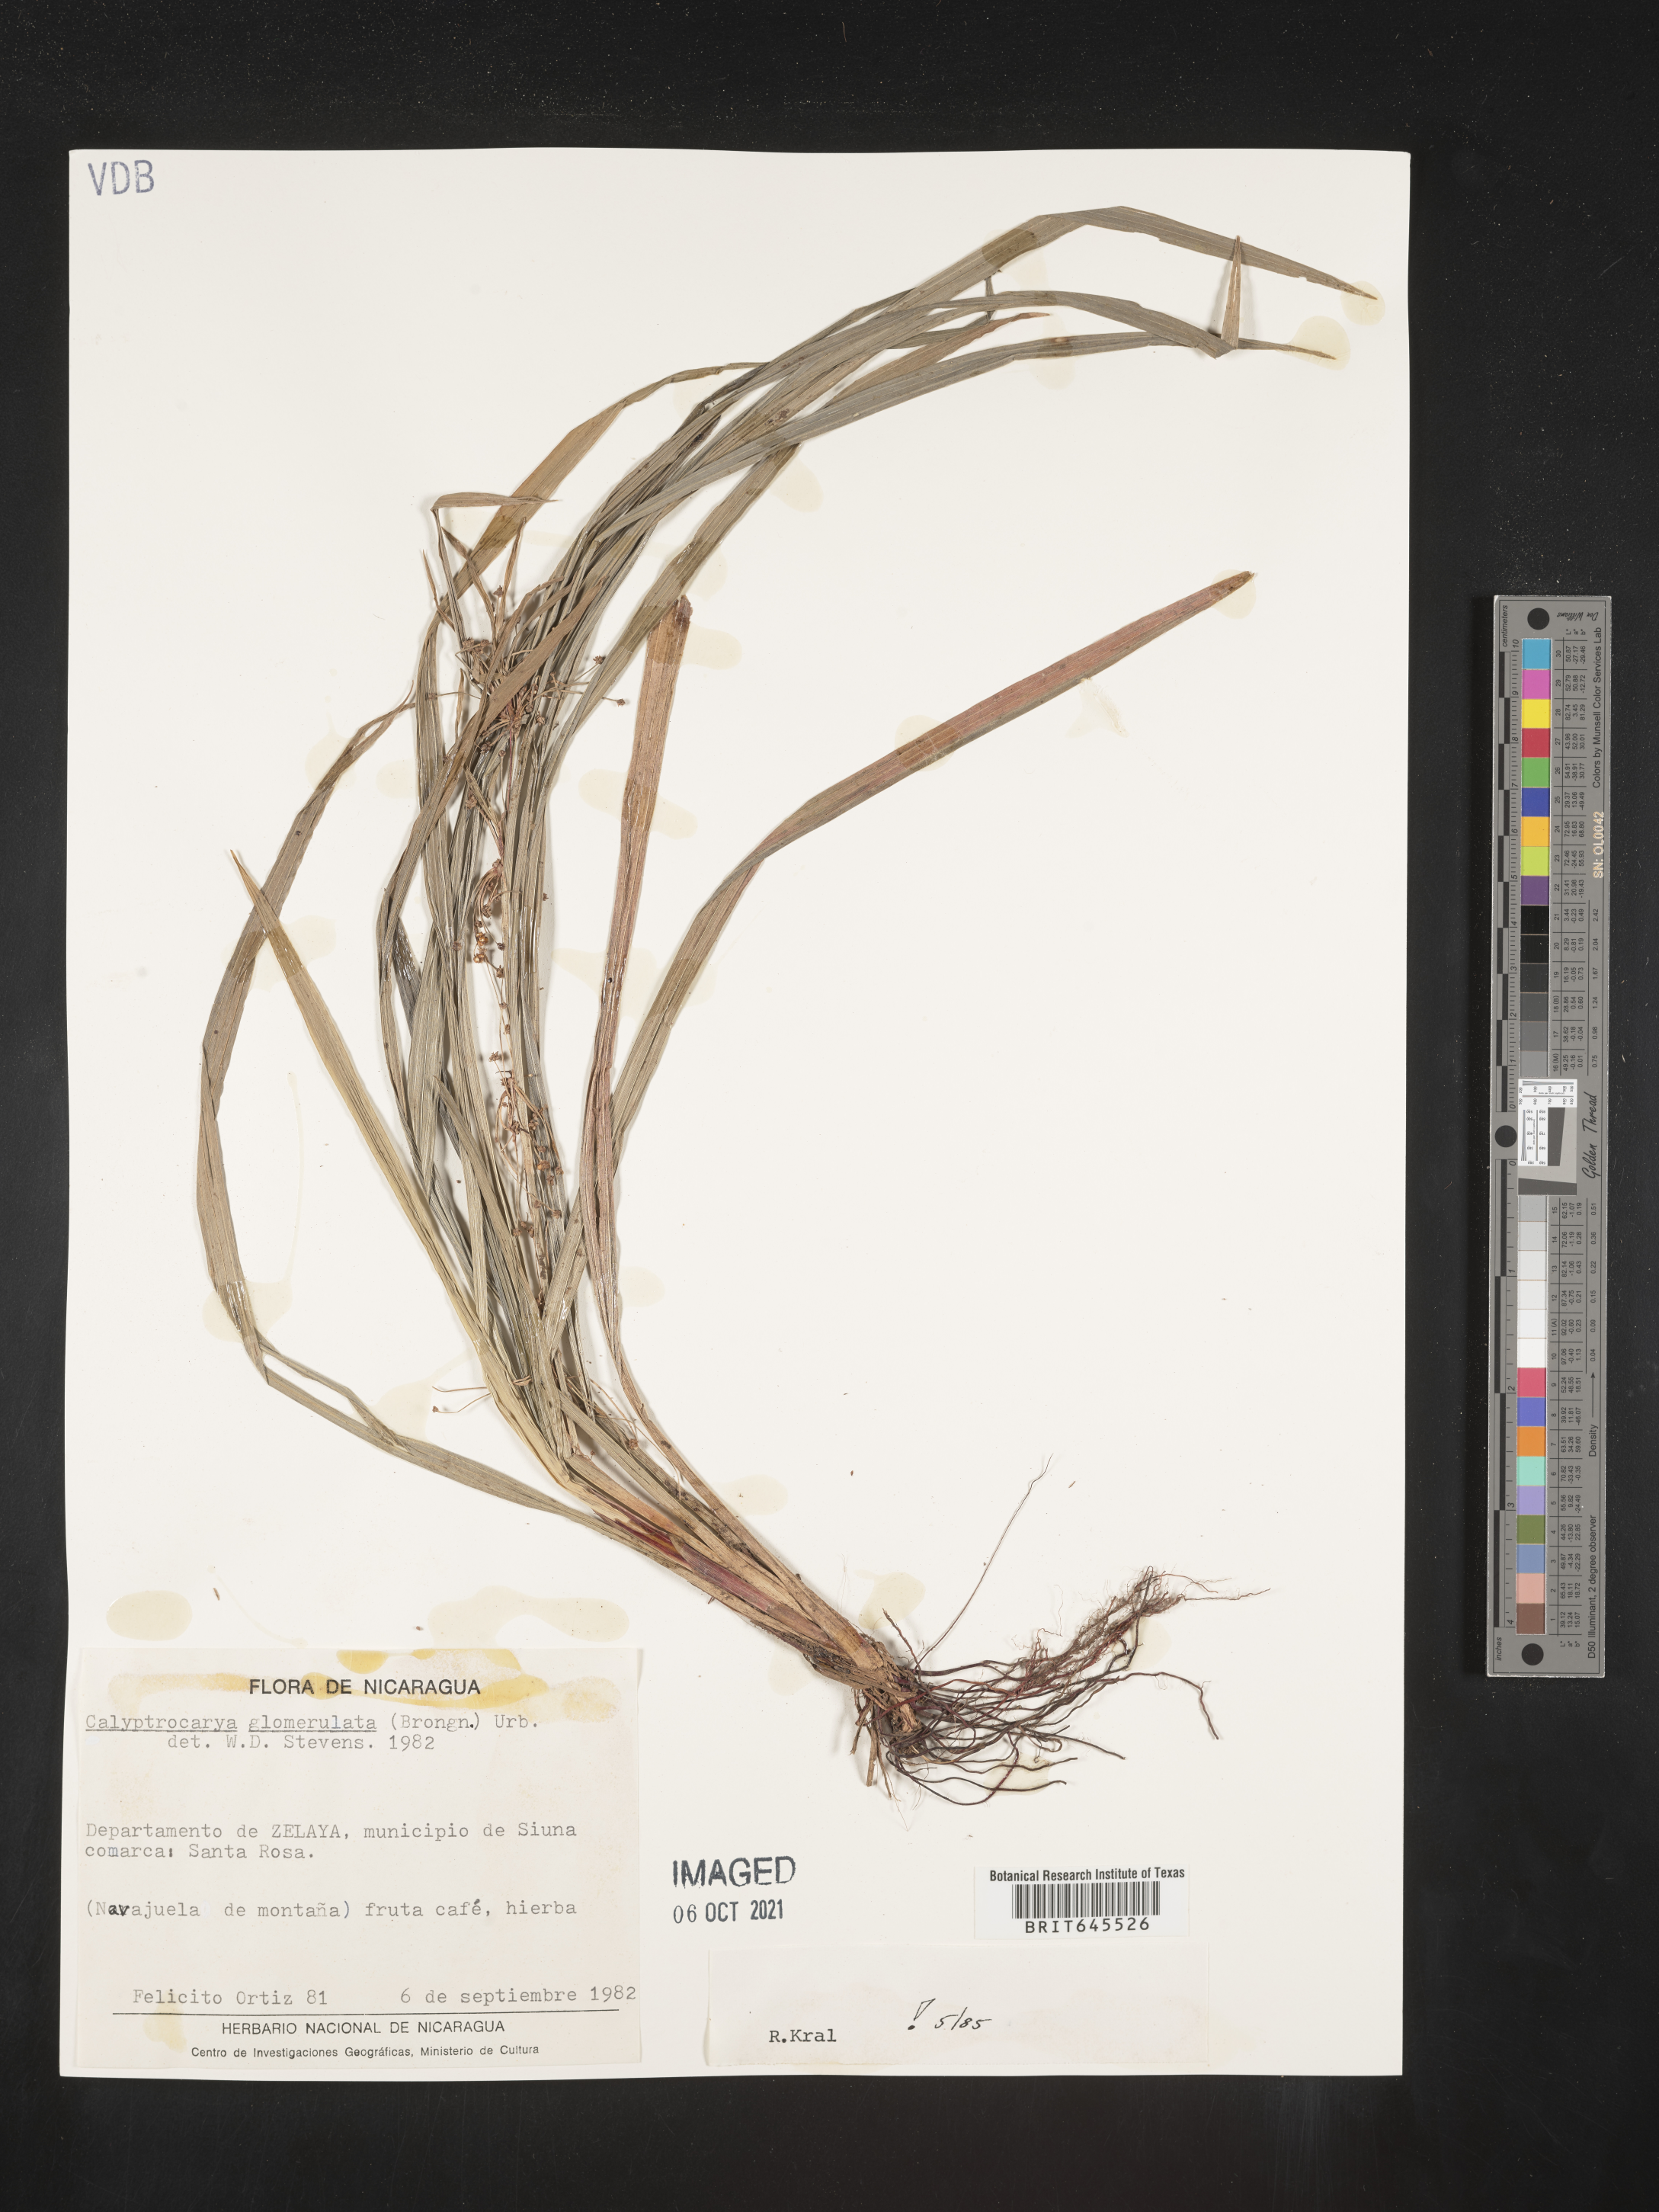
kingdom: Plantae
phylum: Tracheophyta
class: Liliopsida
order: Poales
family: Cyperaceae
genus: Calyptrocarya
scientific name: Calyptrocarya glomerulata
